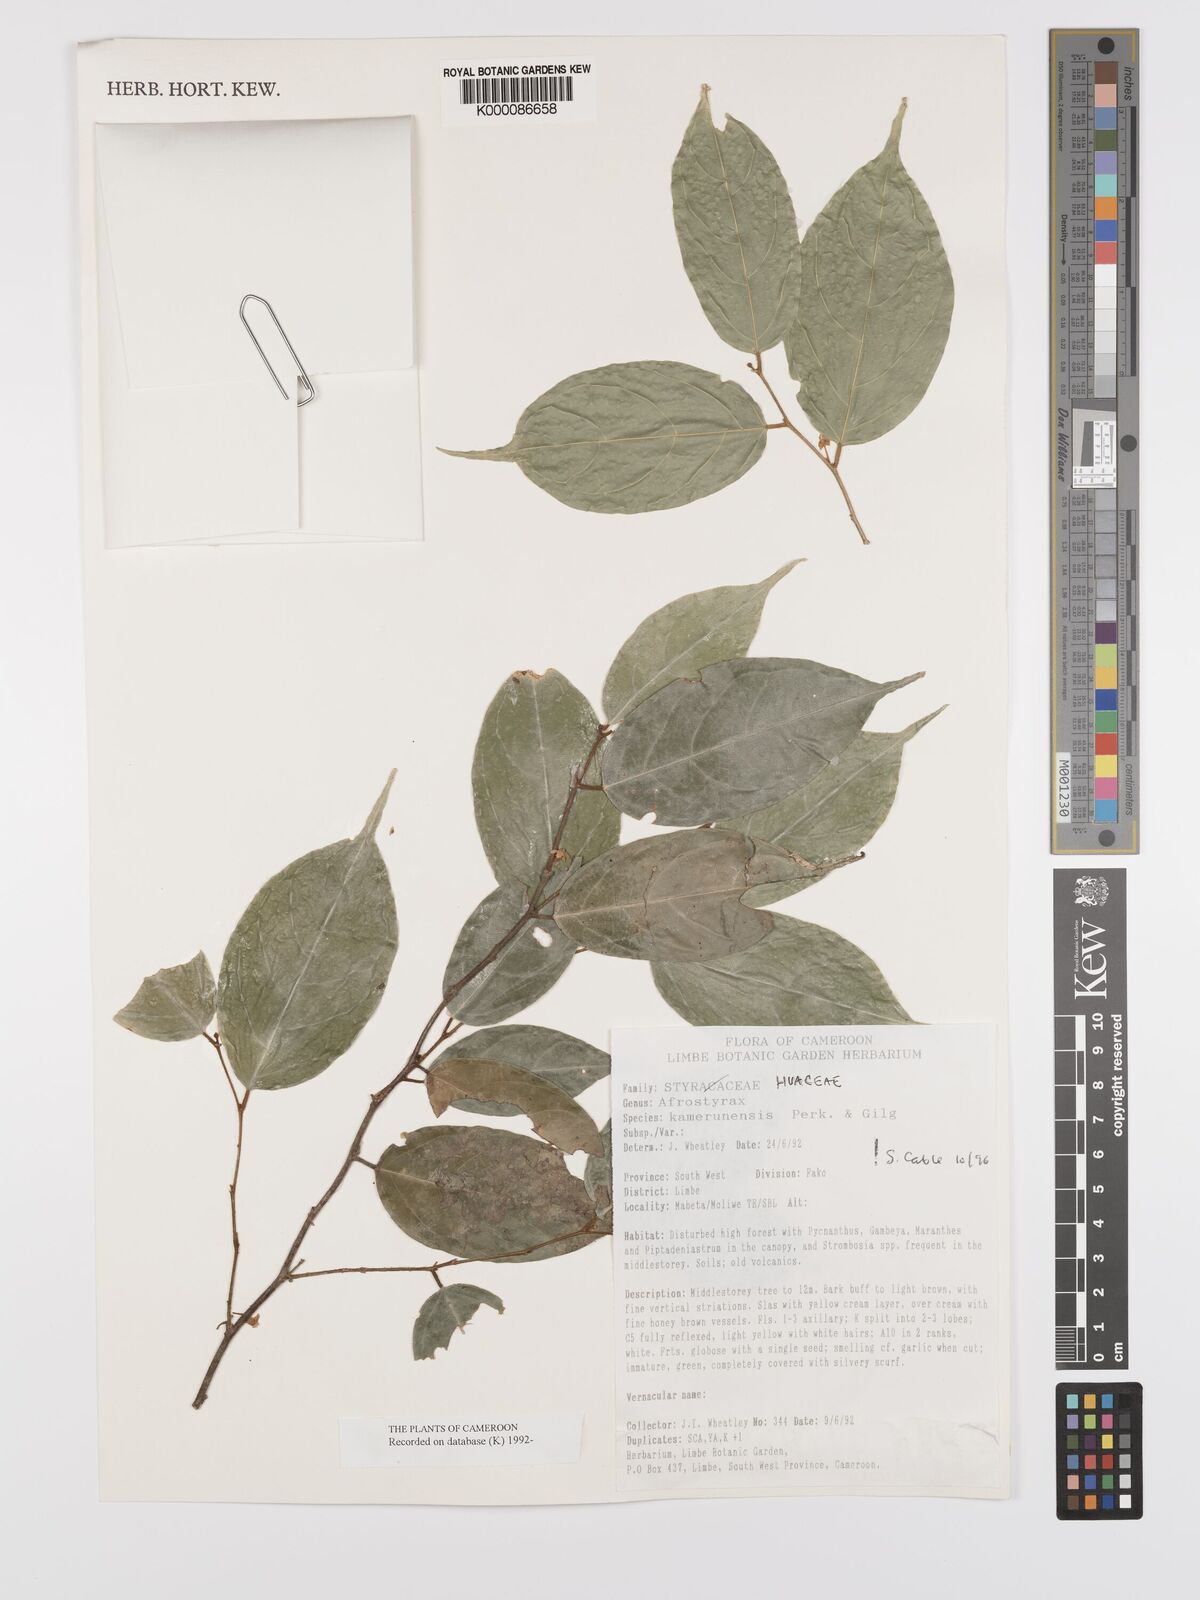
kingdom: Plantae
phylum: Tracheophyta
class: Magnoliopsida
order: Oxalidales
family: Huaceae
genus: Afrostyrax
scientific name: Afrostyrax kamerunensis
